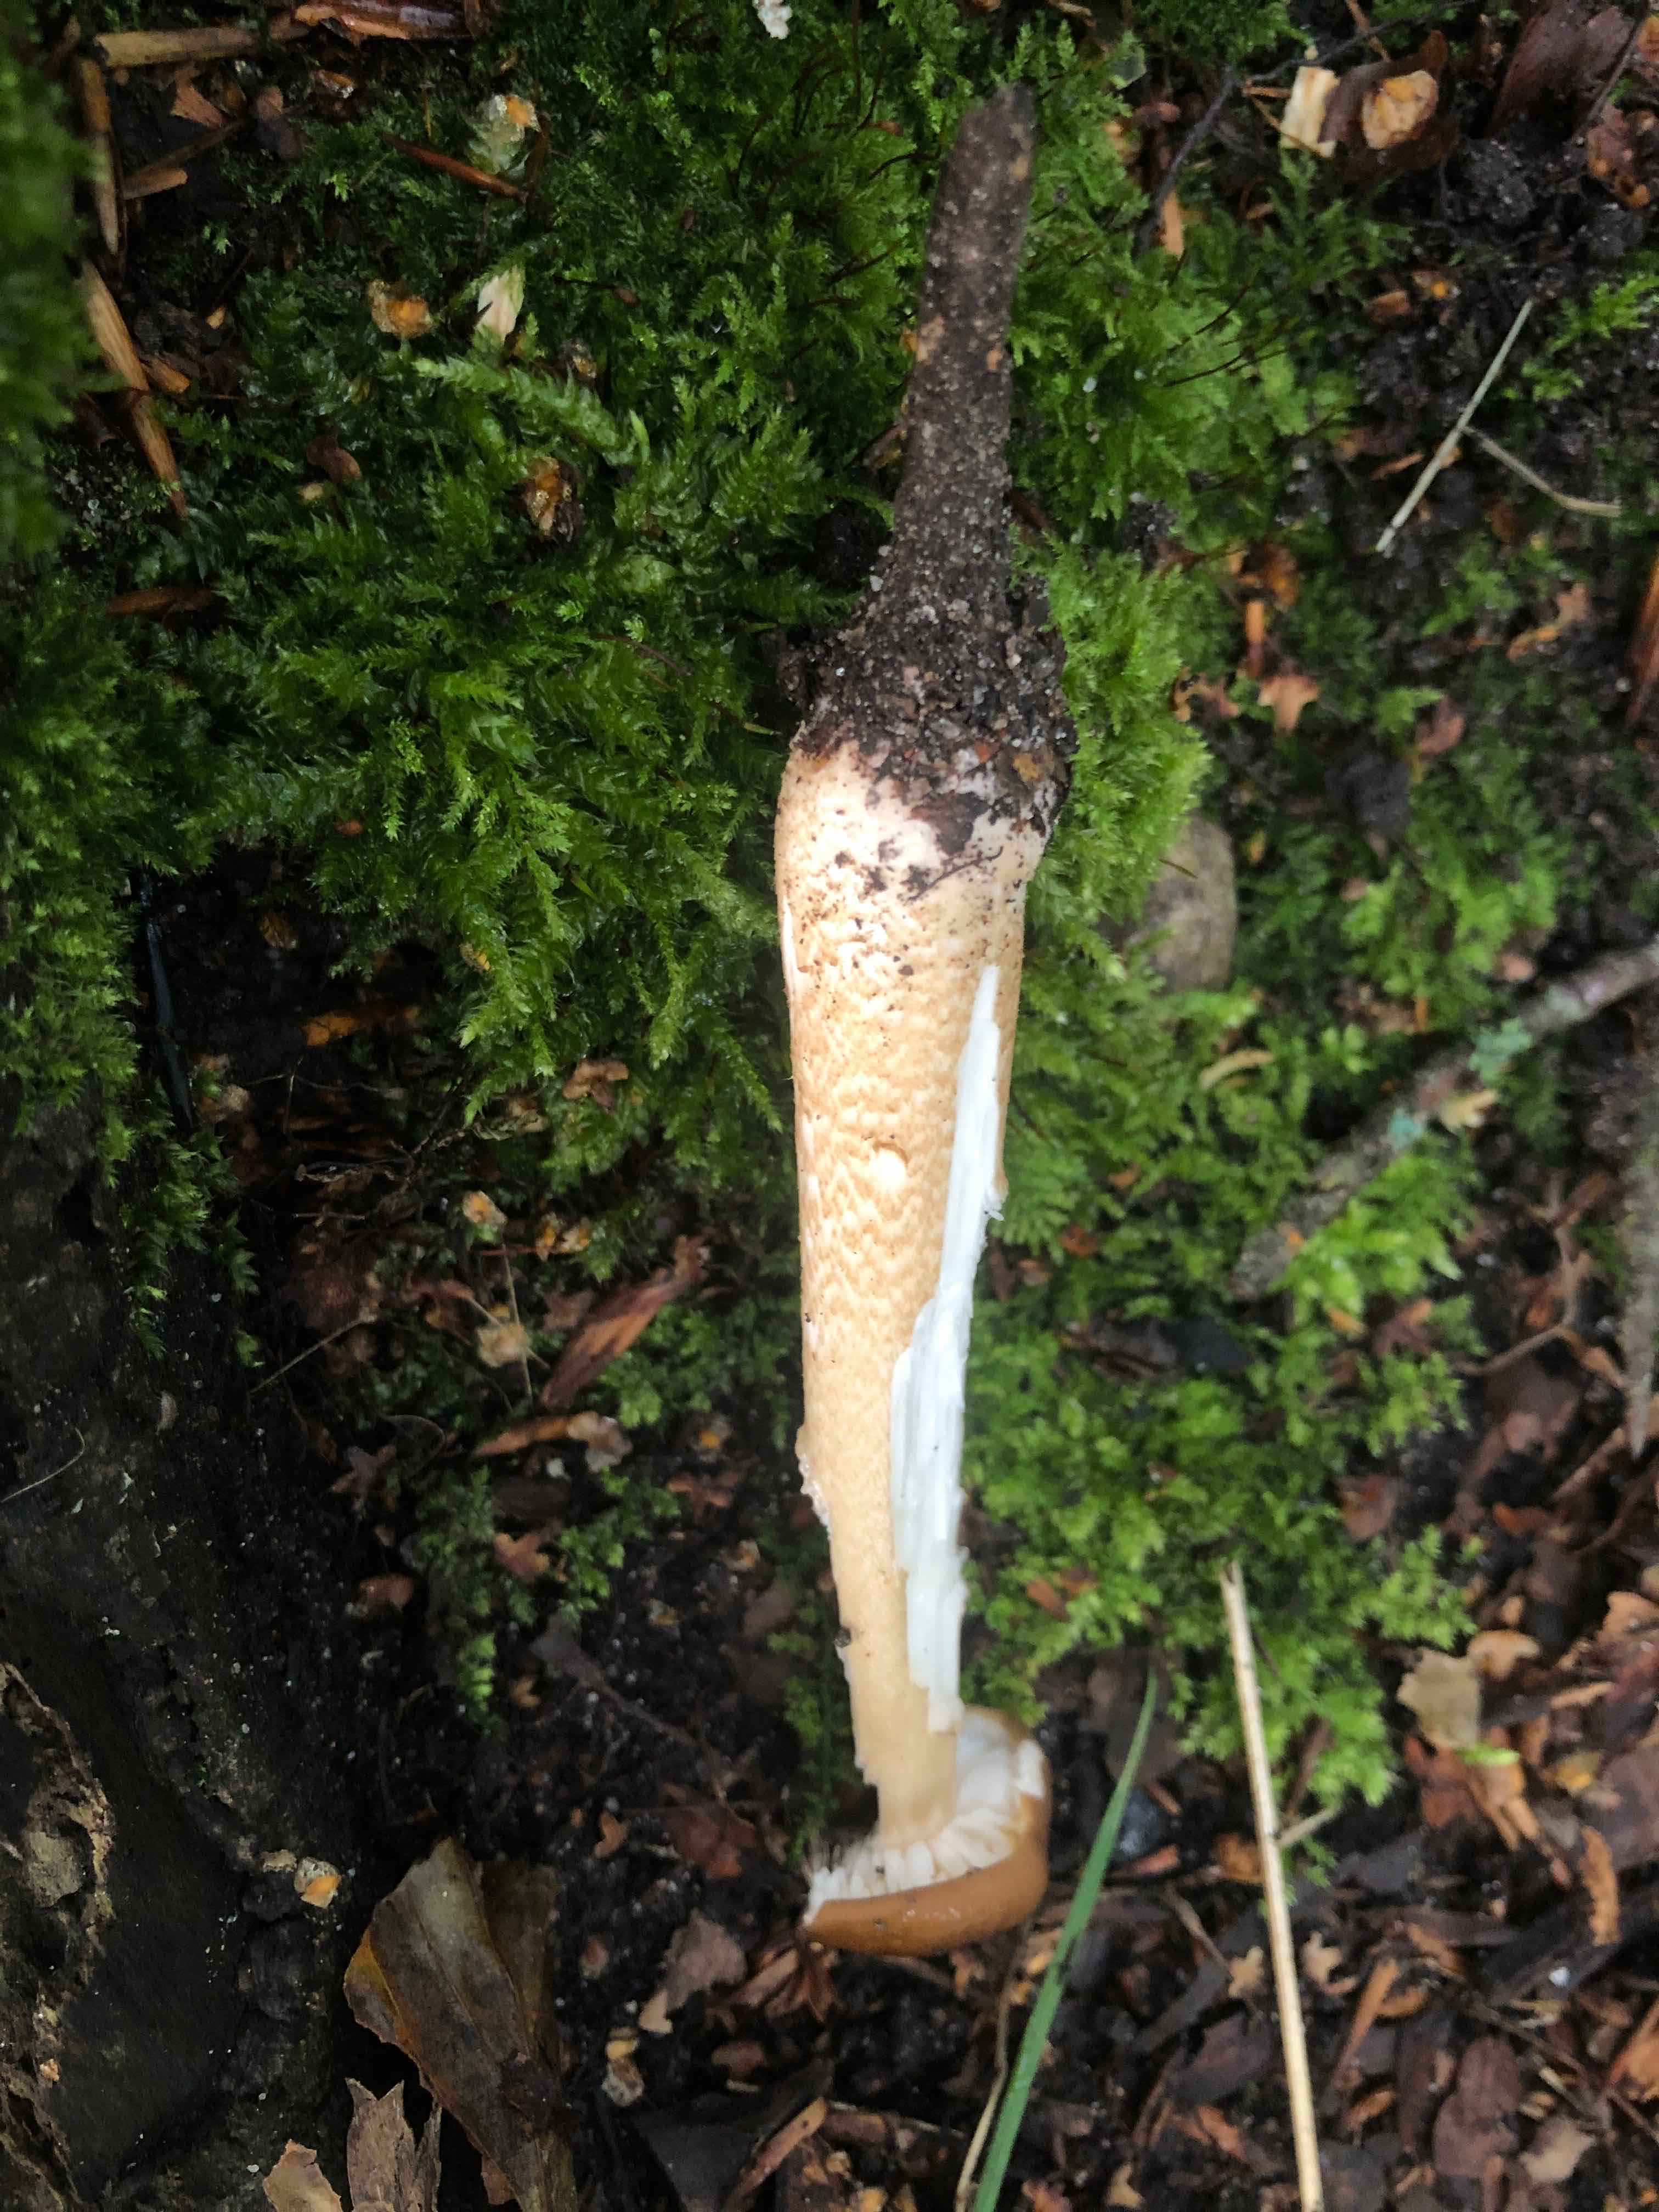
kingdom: Fungi
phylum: Basidiomycota
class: Agaricomycetes
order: Agaricales
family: Physalacriaceae
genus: Hymenopellis
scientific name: Hymenopellis radicata
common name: almindelig pælerodshat
